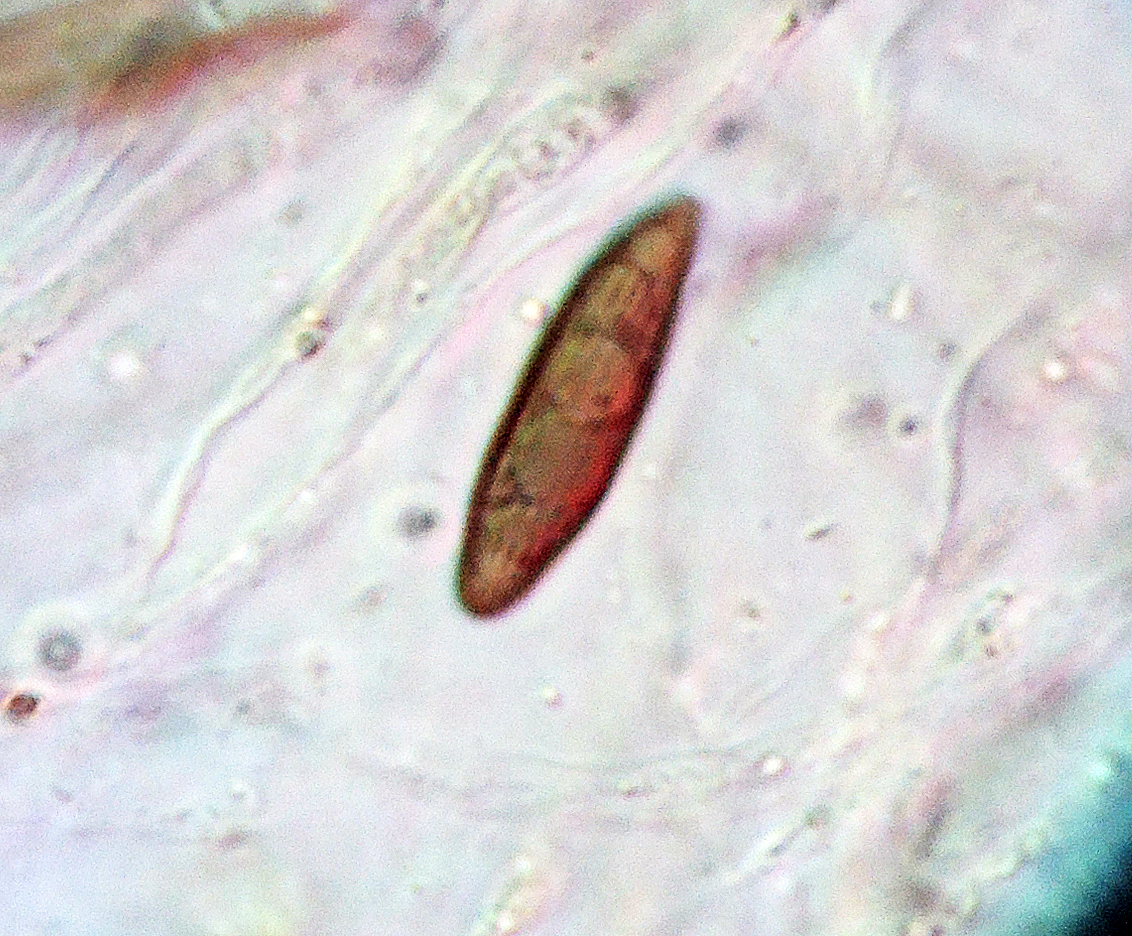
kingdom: Fungi
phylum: Ascomycota
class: Sordariomycetes
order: Xylariales
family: Xylariaceae
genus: Nemania
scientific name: Nemania chestersii
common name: stribesporet kuldyne
